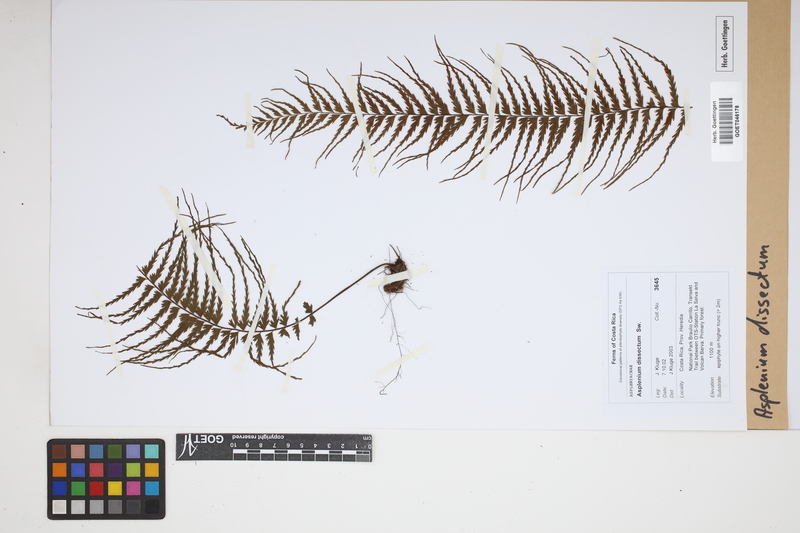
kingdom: Plantae
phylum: Tracheophyta
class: Polypodiopsida
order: Polypodiales
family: Aspleniaceae
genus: Asplenium
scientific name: Asplenium dissectum
